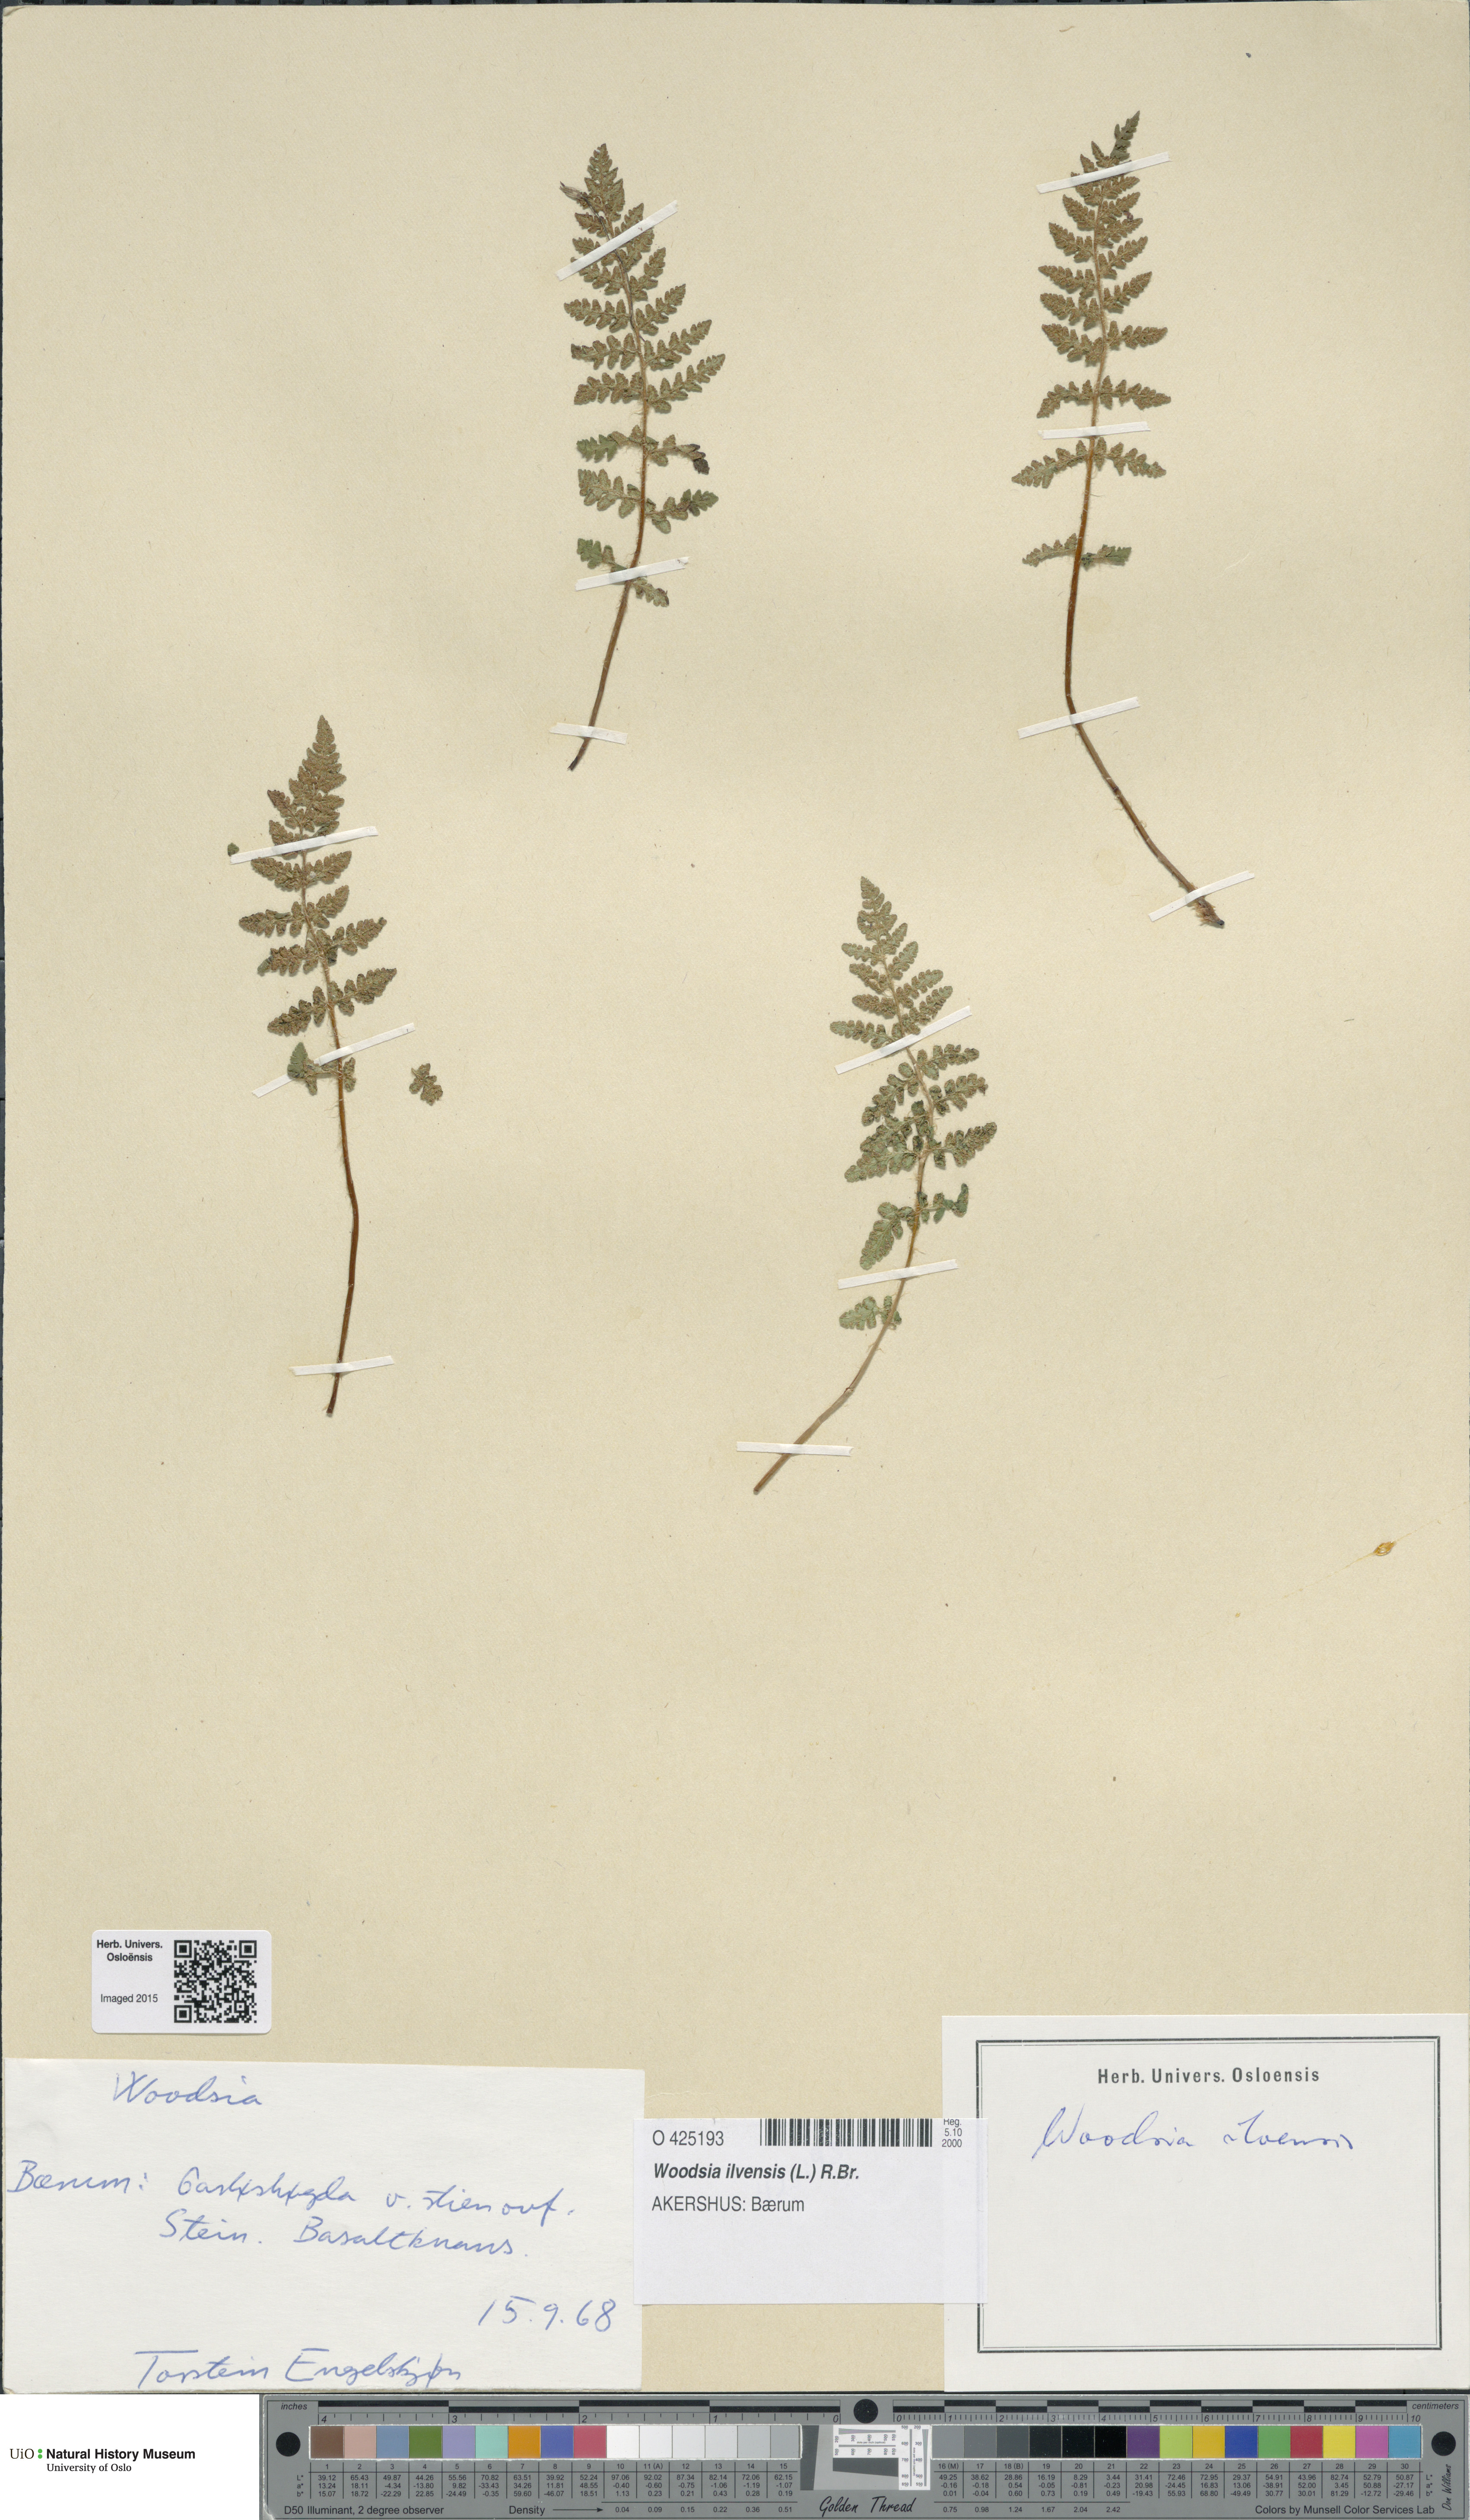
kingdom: Plantae
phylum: Tracheophyta
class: Polypodiopsida
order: Polypodiales
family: Woodsiaceae
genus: Woodsia
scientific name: Woodsia ilvensis
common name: Fragrant woodsia
